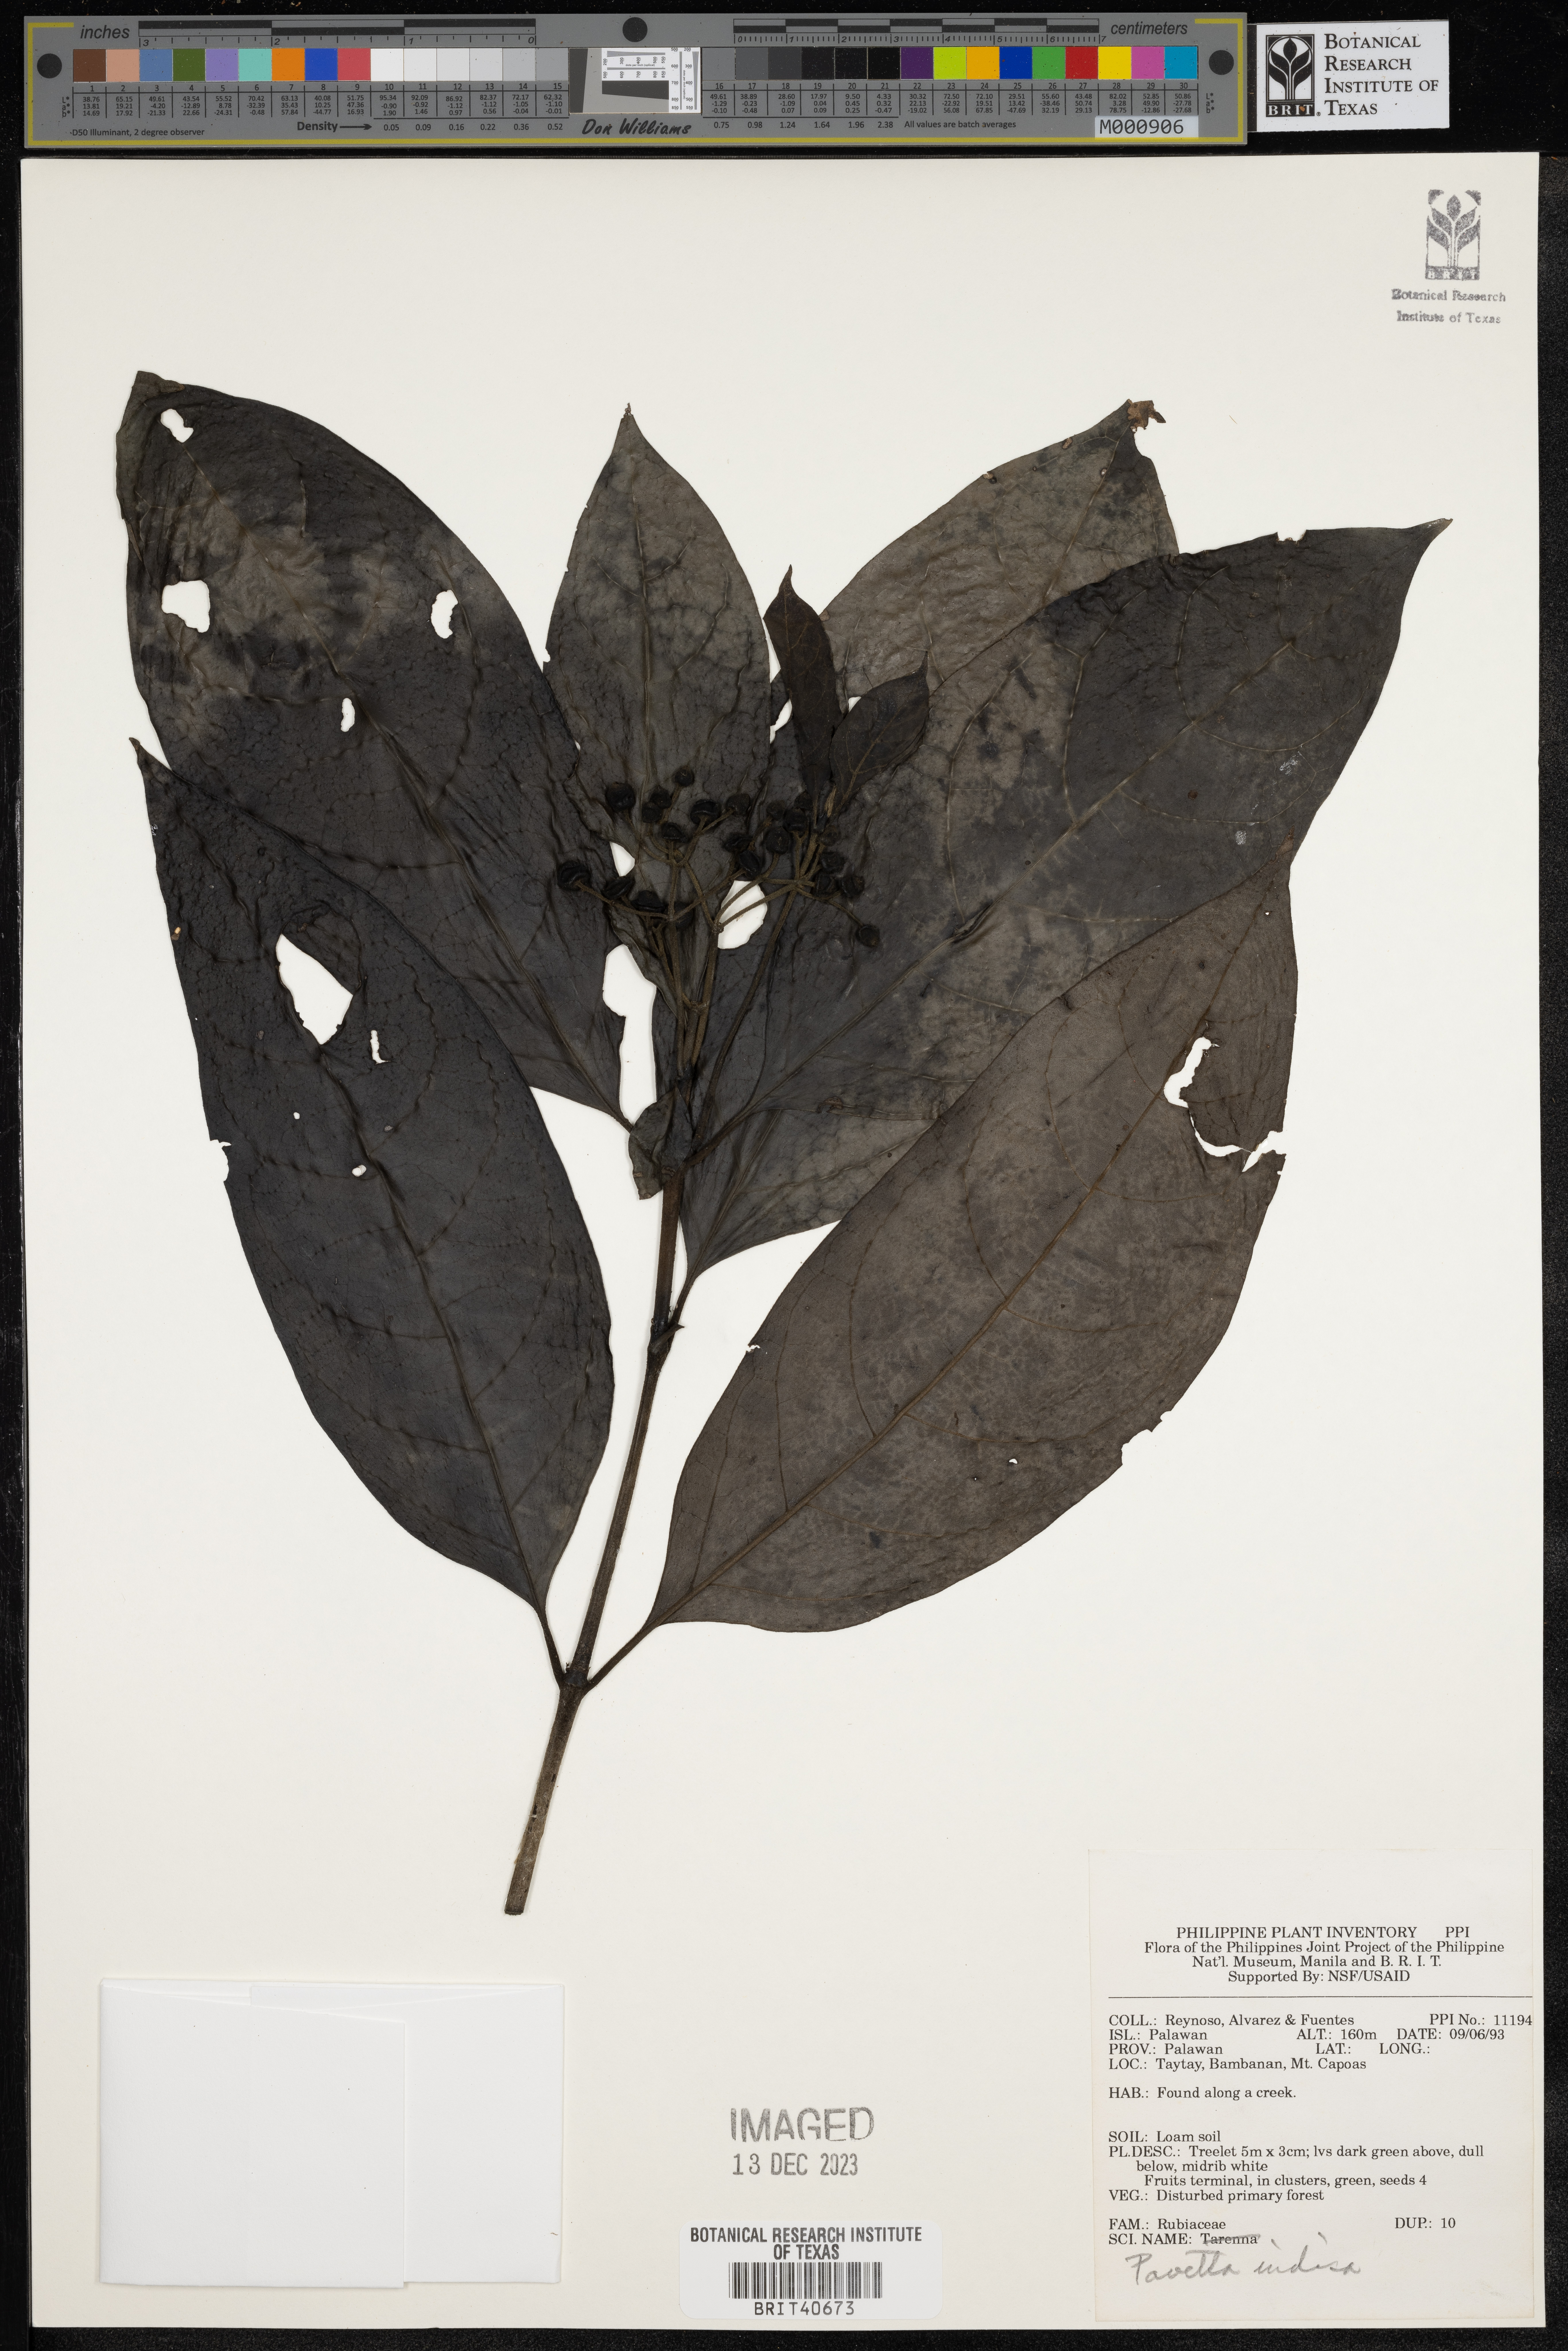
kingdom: Plantae
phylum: Tracheophyta
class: Magnoliopsida
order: Gentianales
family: Rubiaceae
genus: Pavetta
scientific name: Pavetta indica
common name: Indian pavetta
